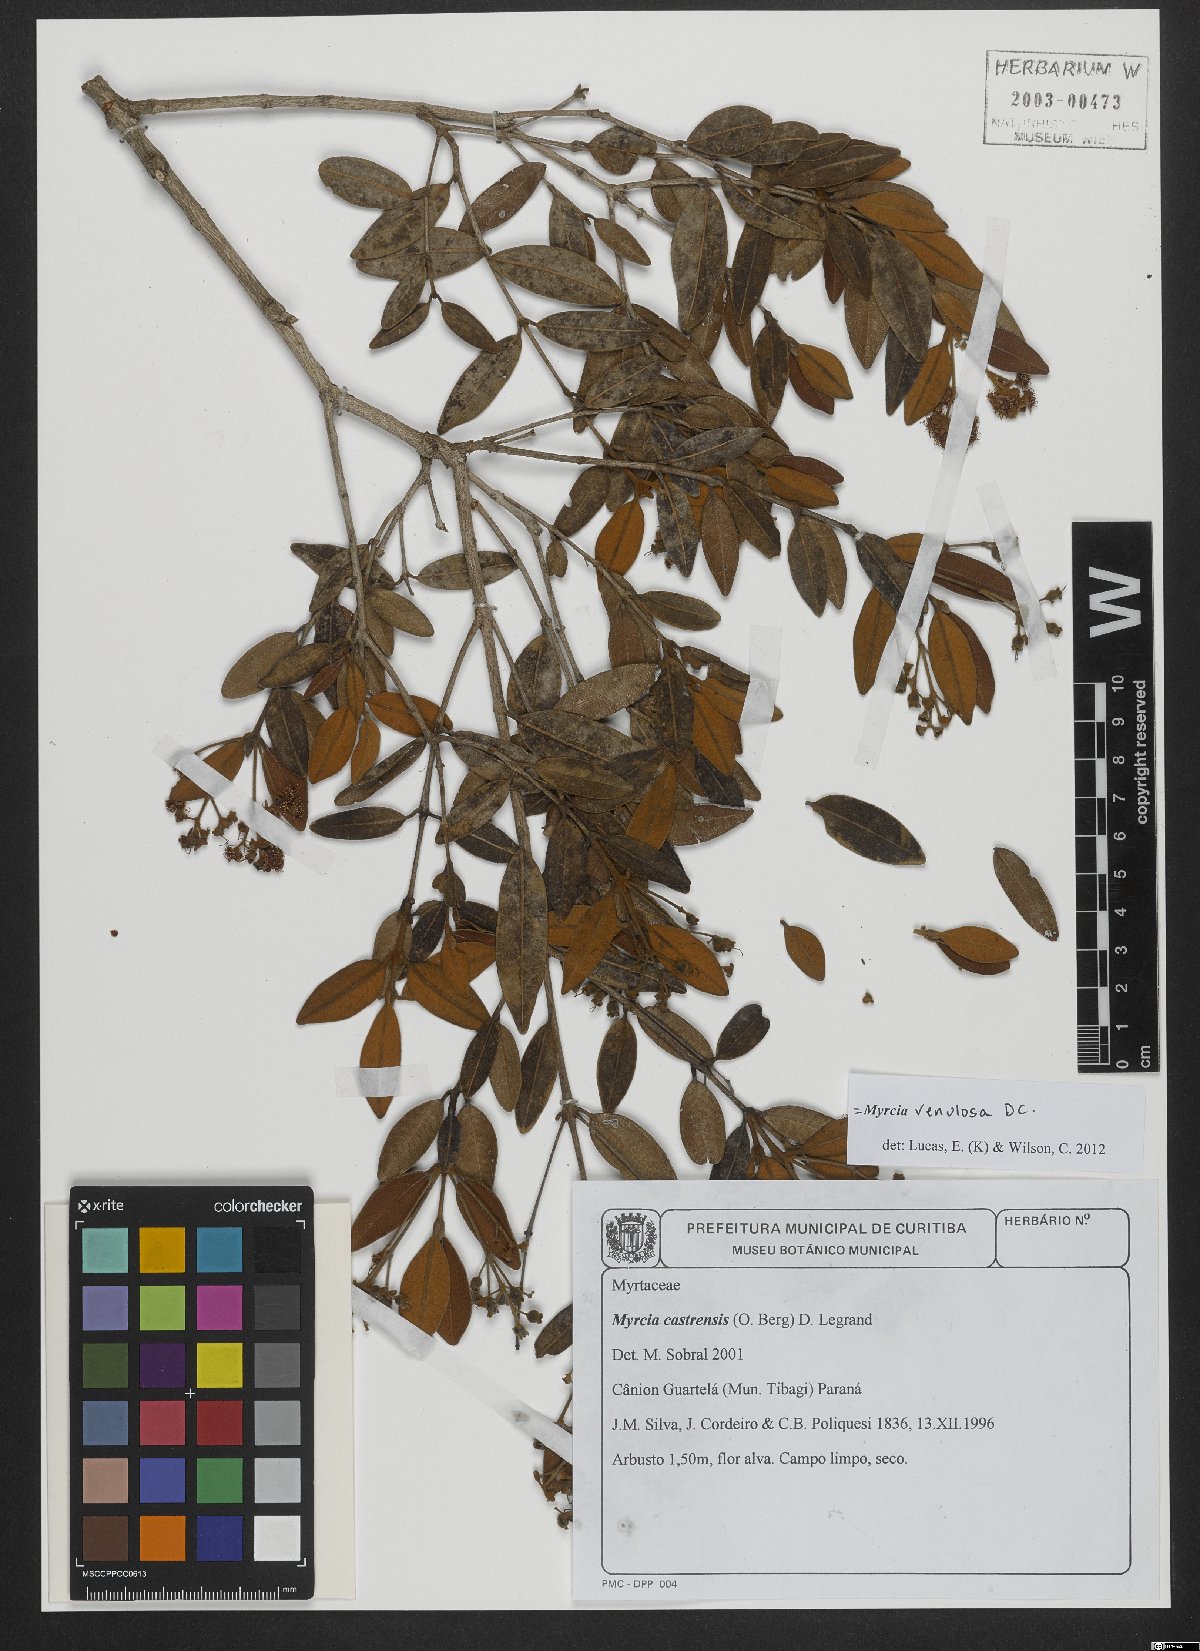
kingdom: Plantae
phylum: Tracheophyta
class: Magnoliopsida
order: Myrtales
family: Myrtaceae
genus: Myrcia
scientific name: Myrcia venulosa
